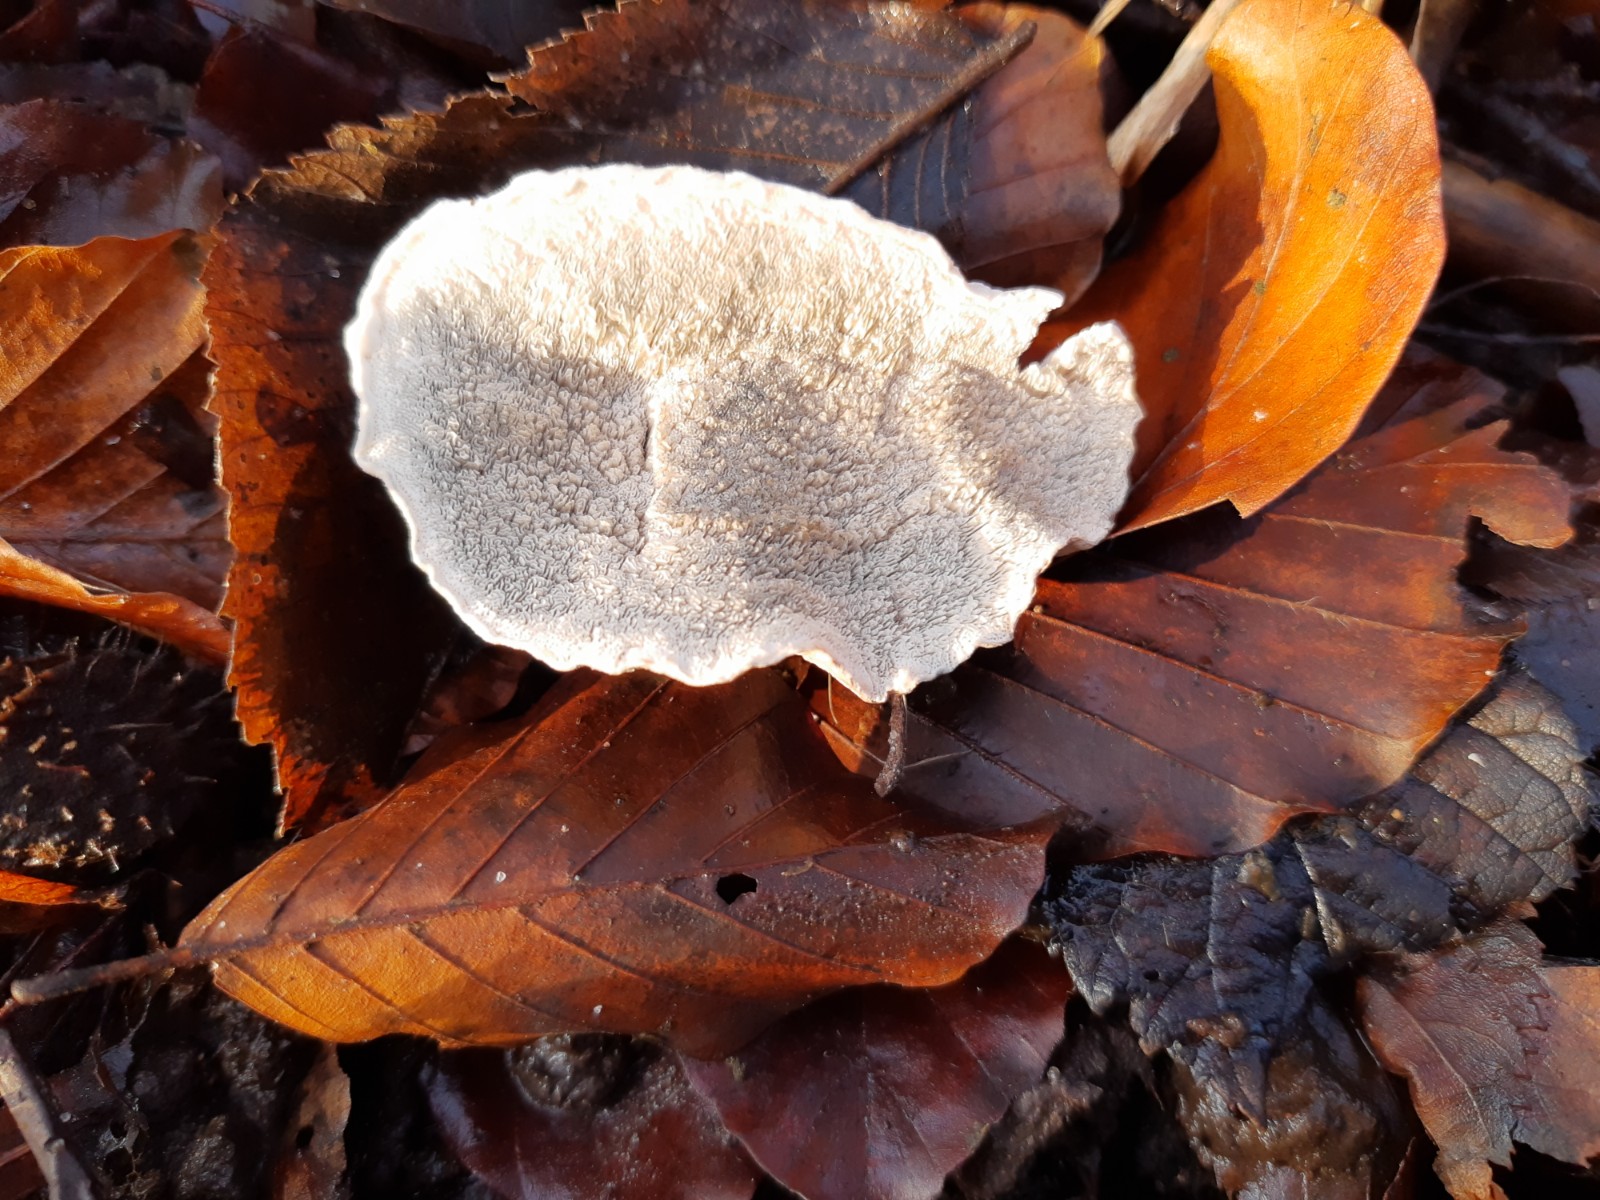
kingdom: Fungi
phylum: Basidiomycota
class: Agaricomycetes
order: Polyporales
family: Polyporaceae
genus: Cyanosporus
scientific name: Cyanosporus alni
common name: blegblå kødporesvamp
